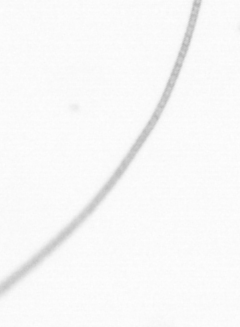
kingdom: Chromista
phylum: Ochrophyta
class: Bacillariophyceae
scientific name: Bacillariophyceae
